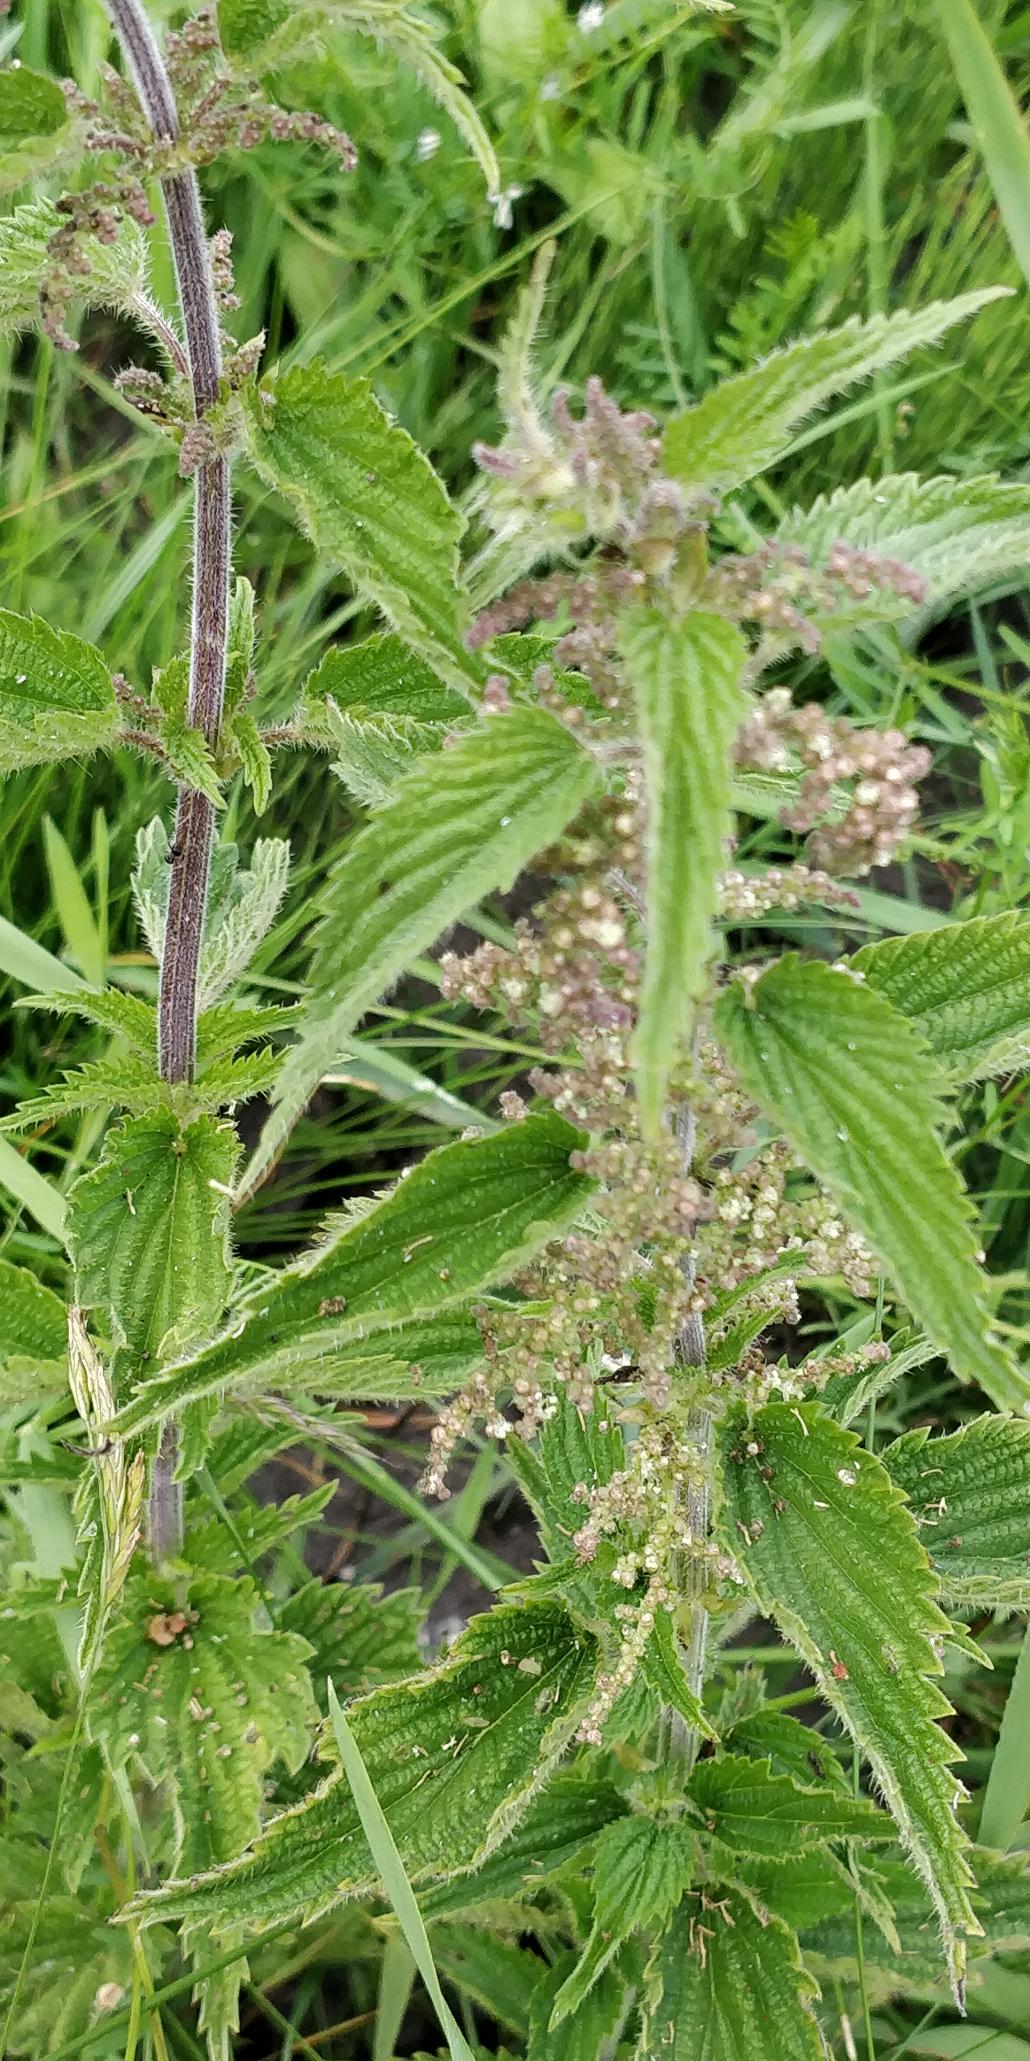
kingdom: Plantae
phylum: Tracheophyta
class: Magnoliopsida
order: Rosales
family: Urticaceae
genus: Urtica
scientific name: Urtica dioica
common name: Stor nælde
